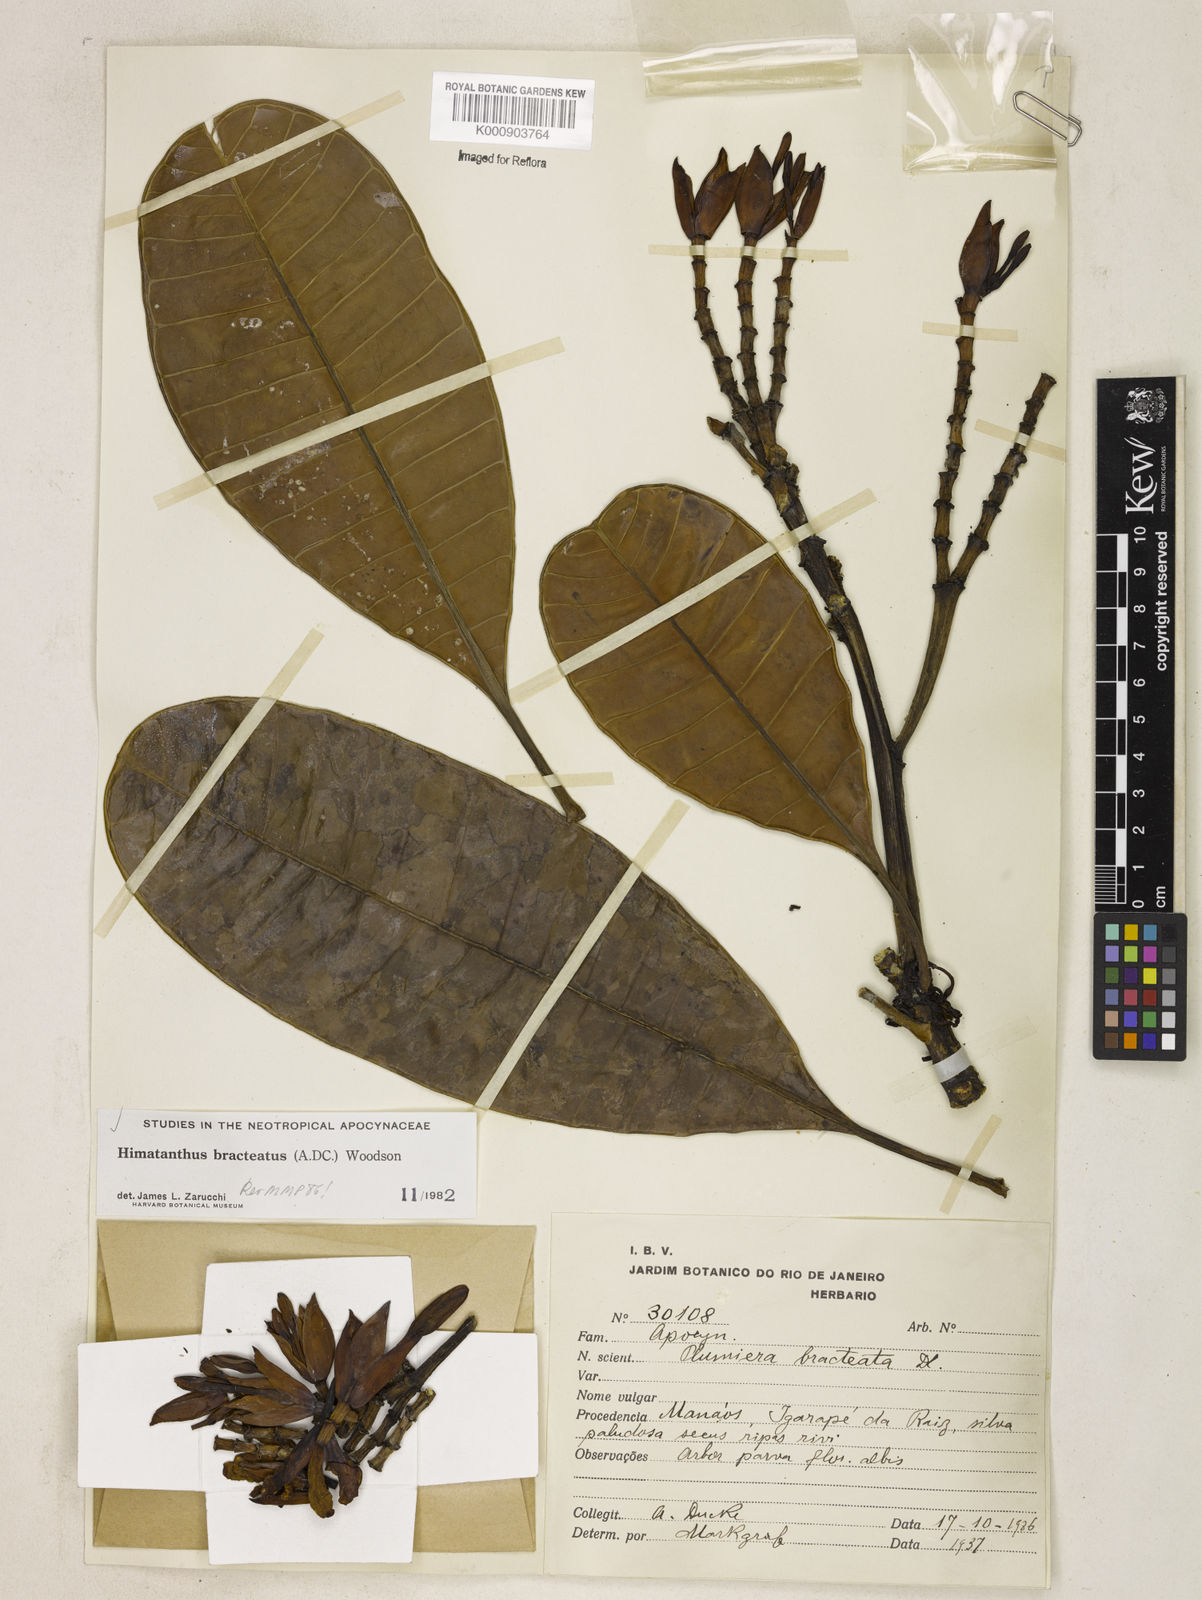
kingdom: Plantae
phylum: Tracheophyta
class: Magnoliopsida
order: Gentianales
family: Apocynaceae
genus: Himatanthus
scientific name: Himatanthus bracteatus
